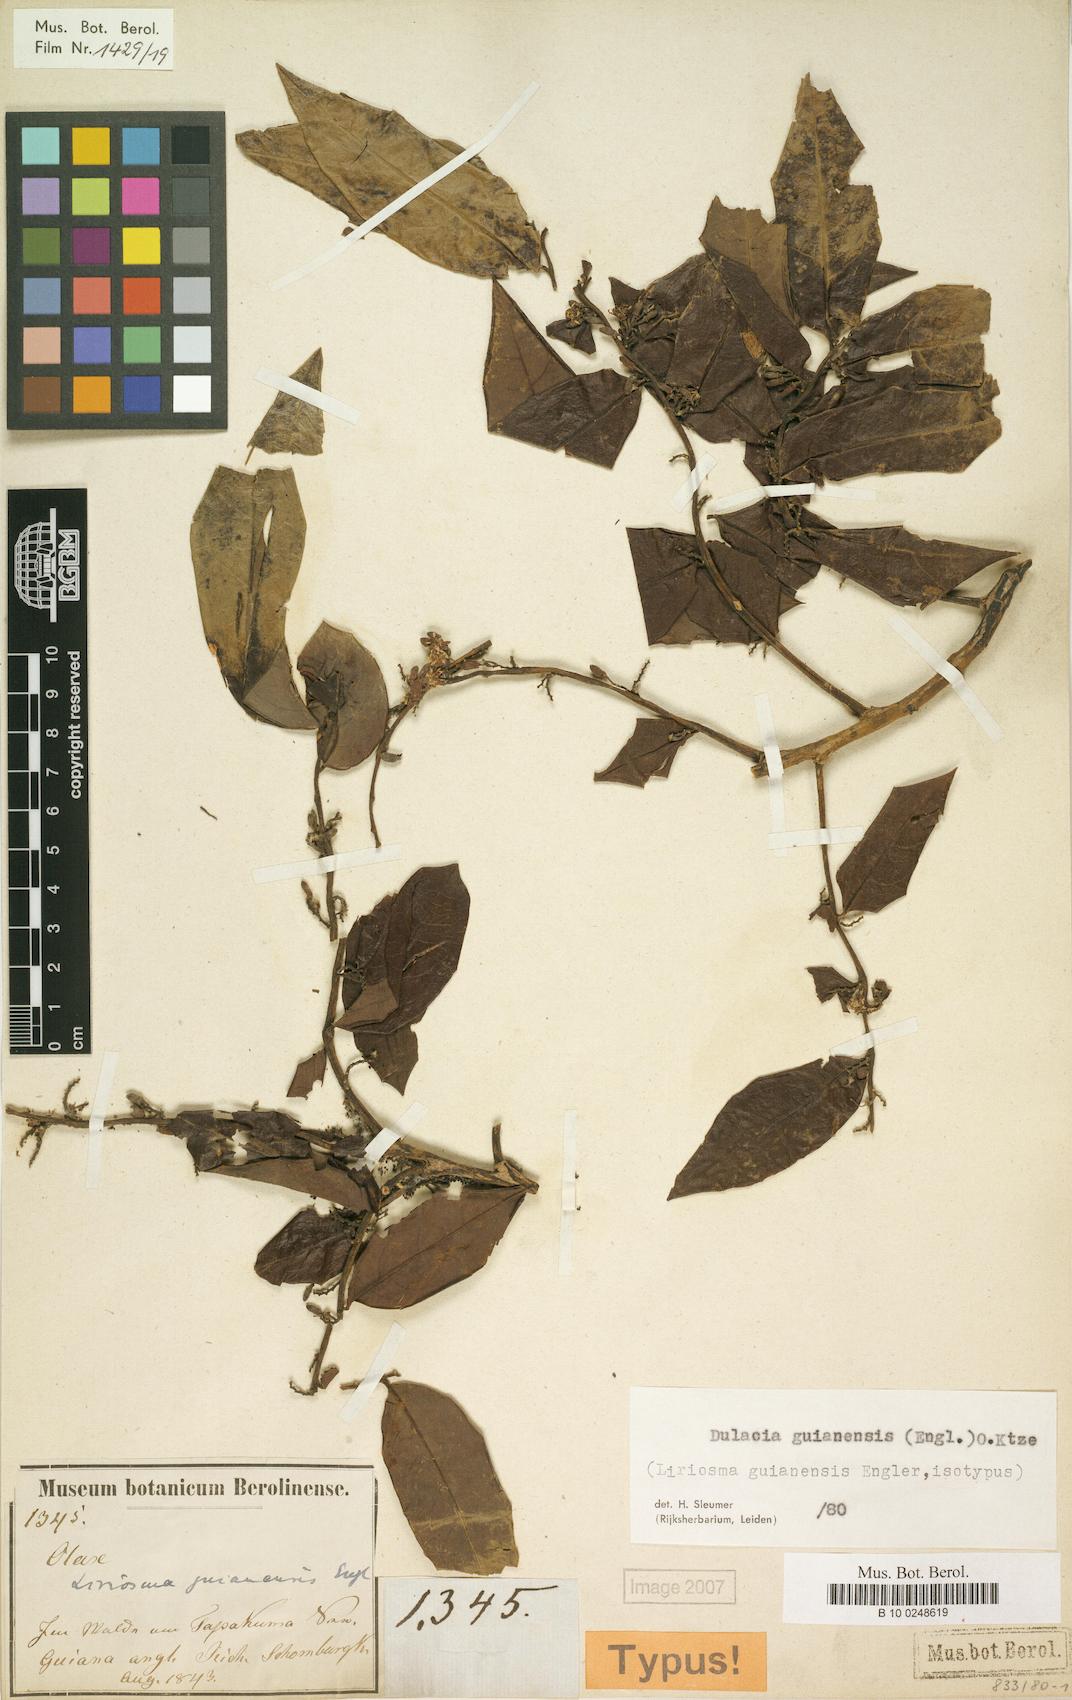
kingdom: Plantae
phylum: Tracheophyta
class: Magnoliopsida
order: Santalales
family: Olacaceae
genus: Dulacia
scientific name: Dulacia guianensis
